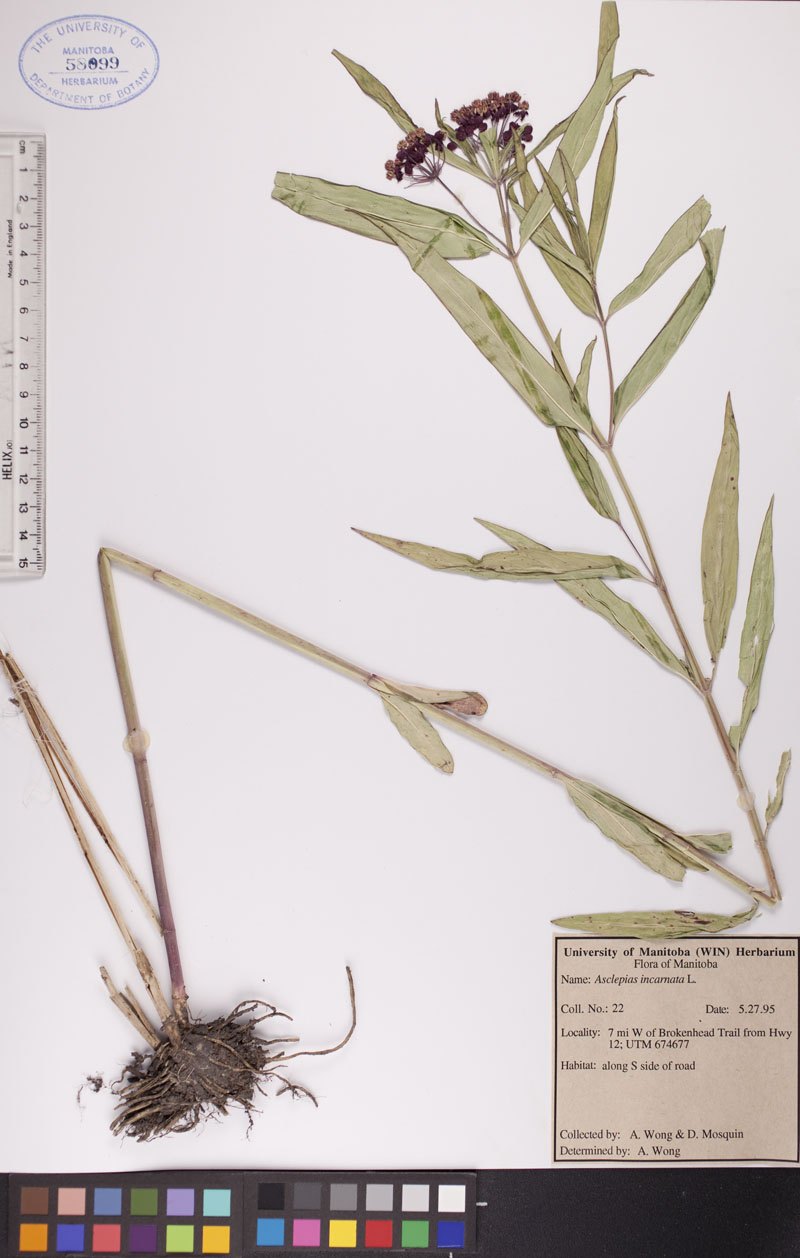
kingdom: Plantae
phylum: Tracheophyta
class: Magnoliopsida
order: Gentianales
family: Apocynaceae
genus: Asclepias
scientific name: Asclepias incarnata
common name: Swamp milkweed
